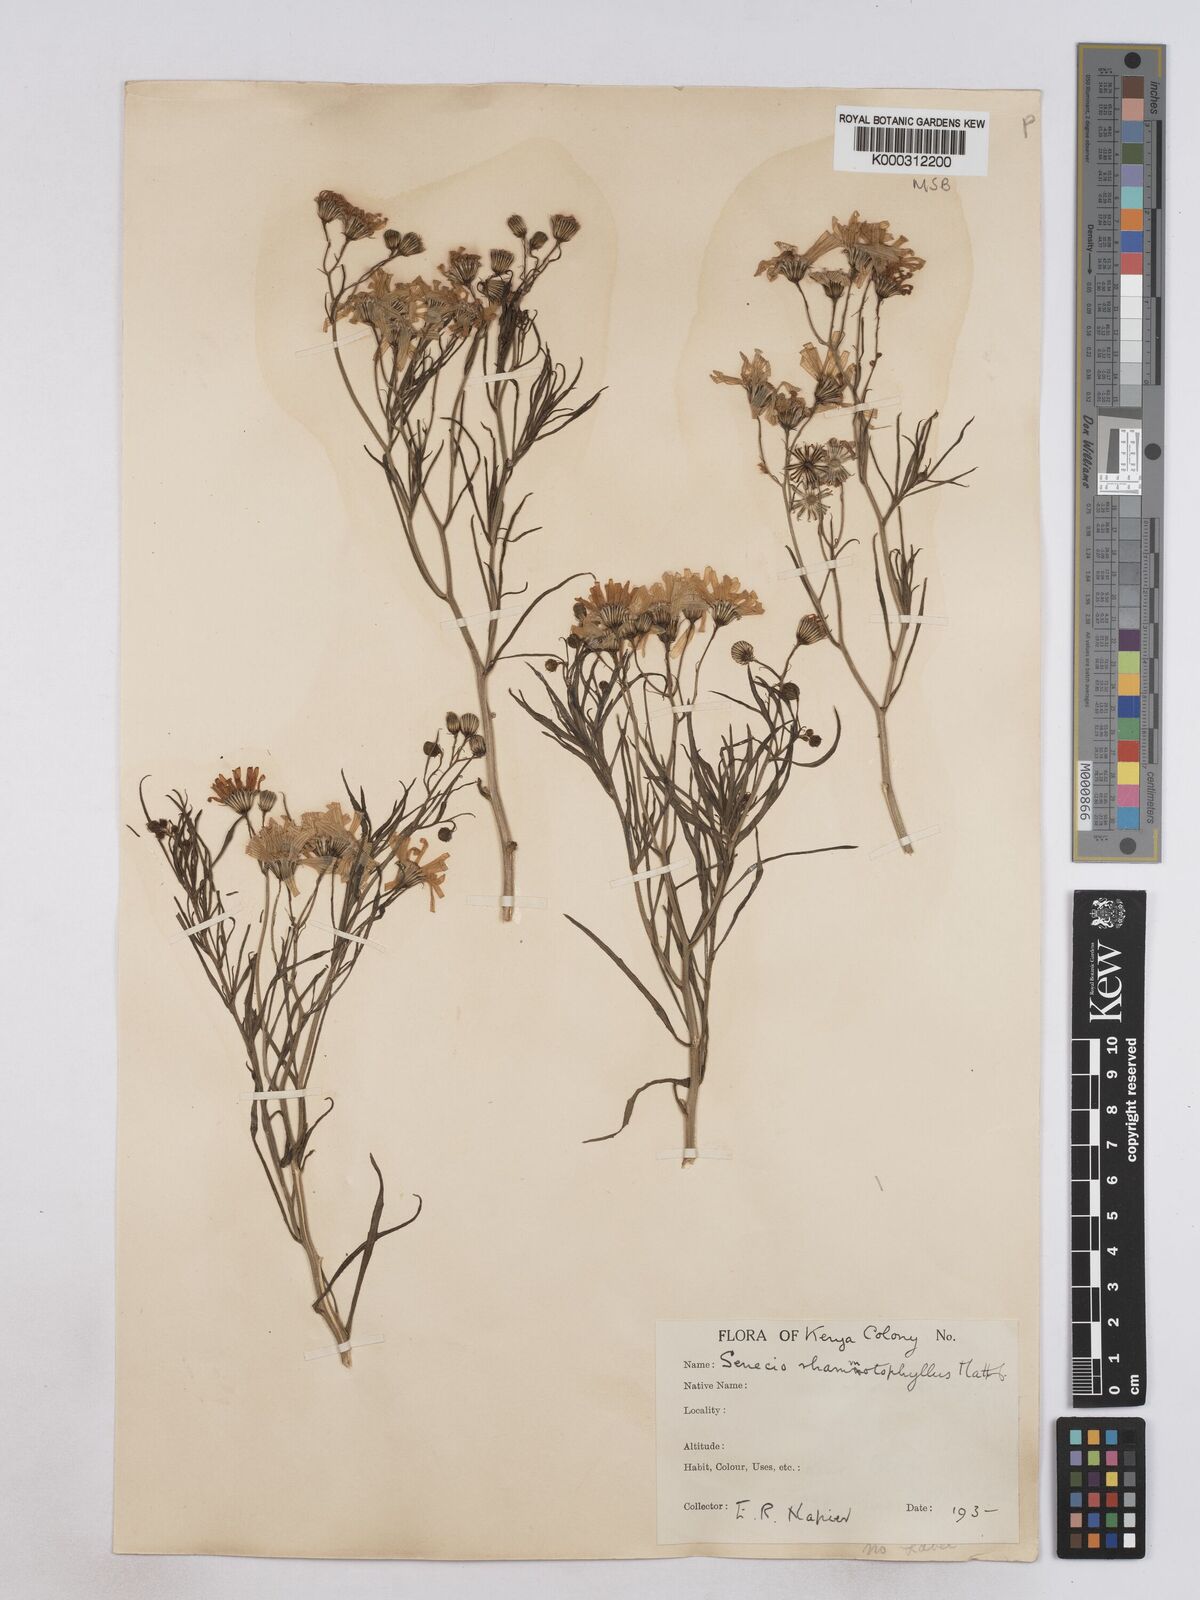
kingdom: Plantae
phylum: Tracheophyta
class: Magnoliopsida
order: Asterales
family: Asteraceae
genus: Senecio
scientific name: Senecio rhammatophyllus
